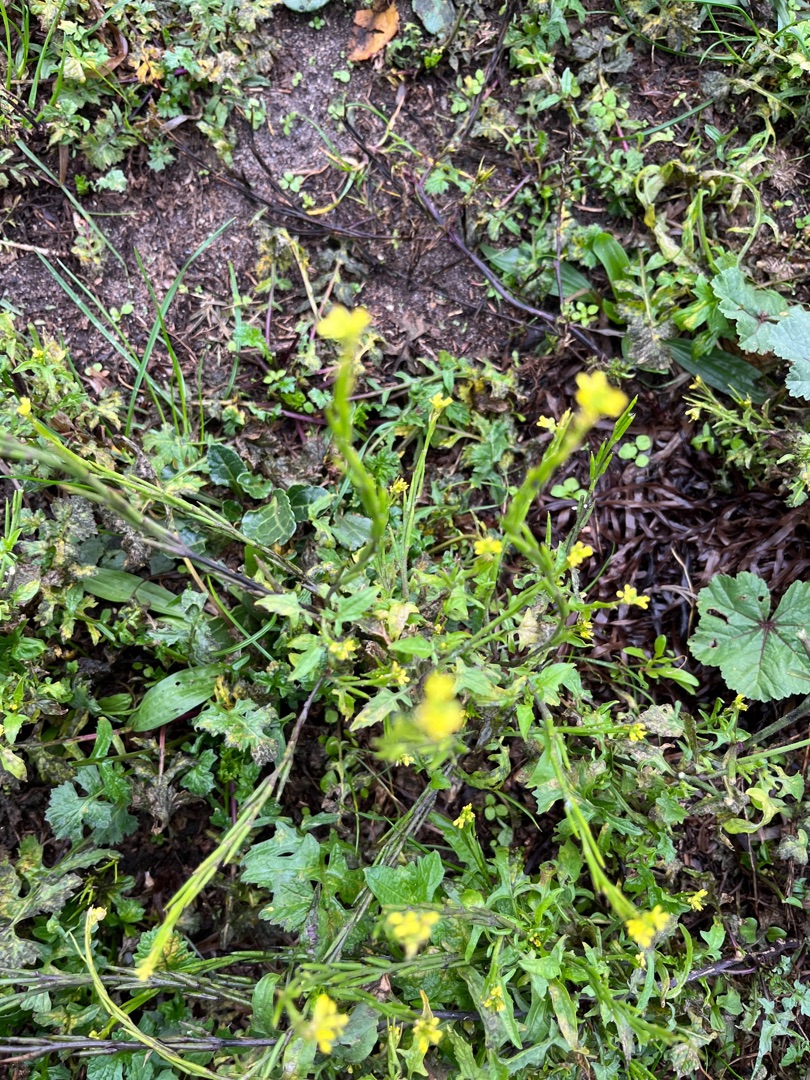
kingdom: Plantae
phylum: Tracheophyta
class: Magnoliopsida
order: Brassicales
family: Brassicaceae
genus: Sisymbrium
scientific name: Sisymbrium officinale
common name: Rank vejsennep
